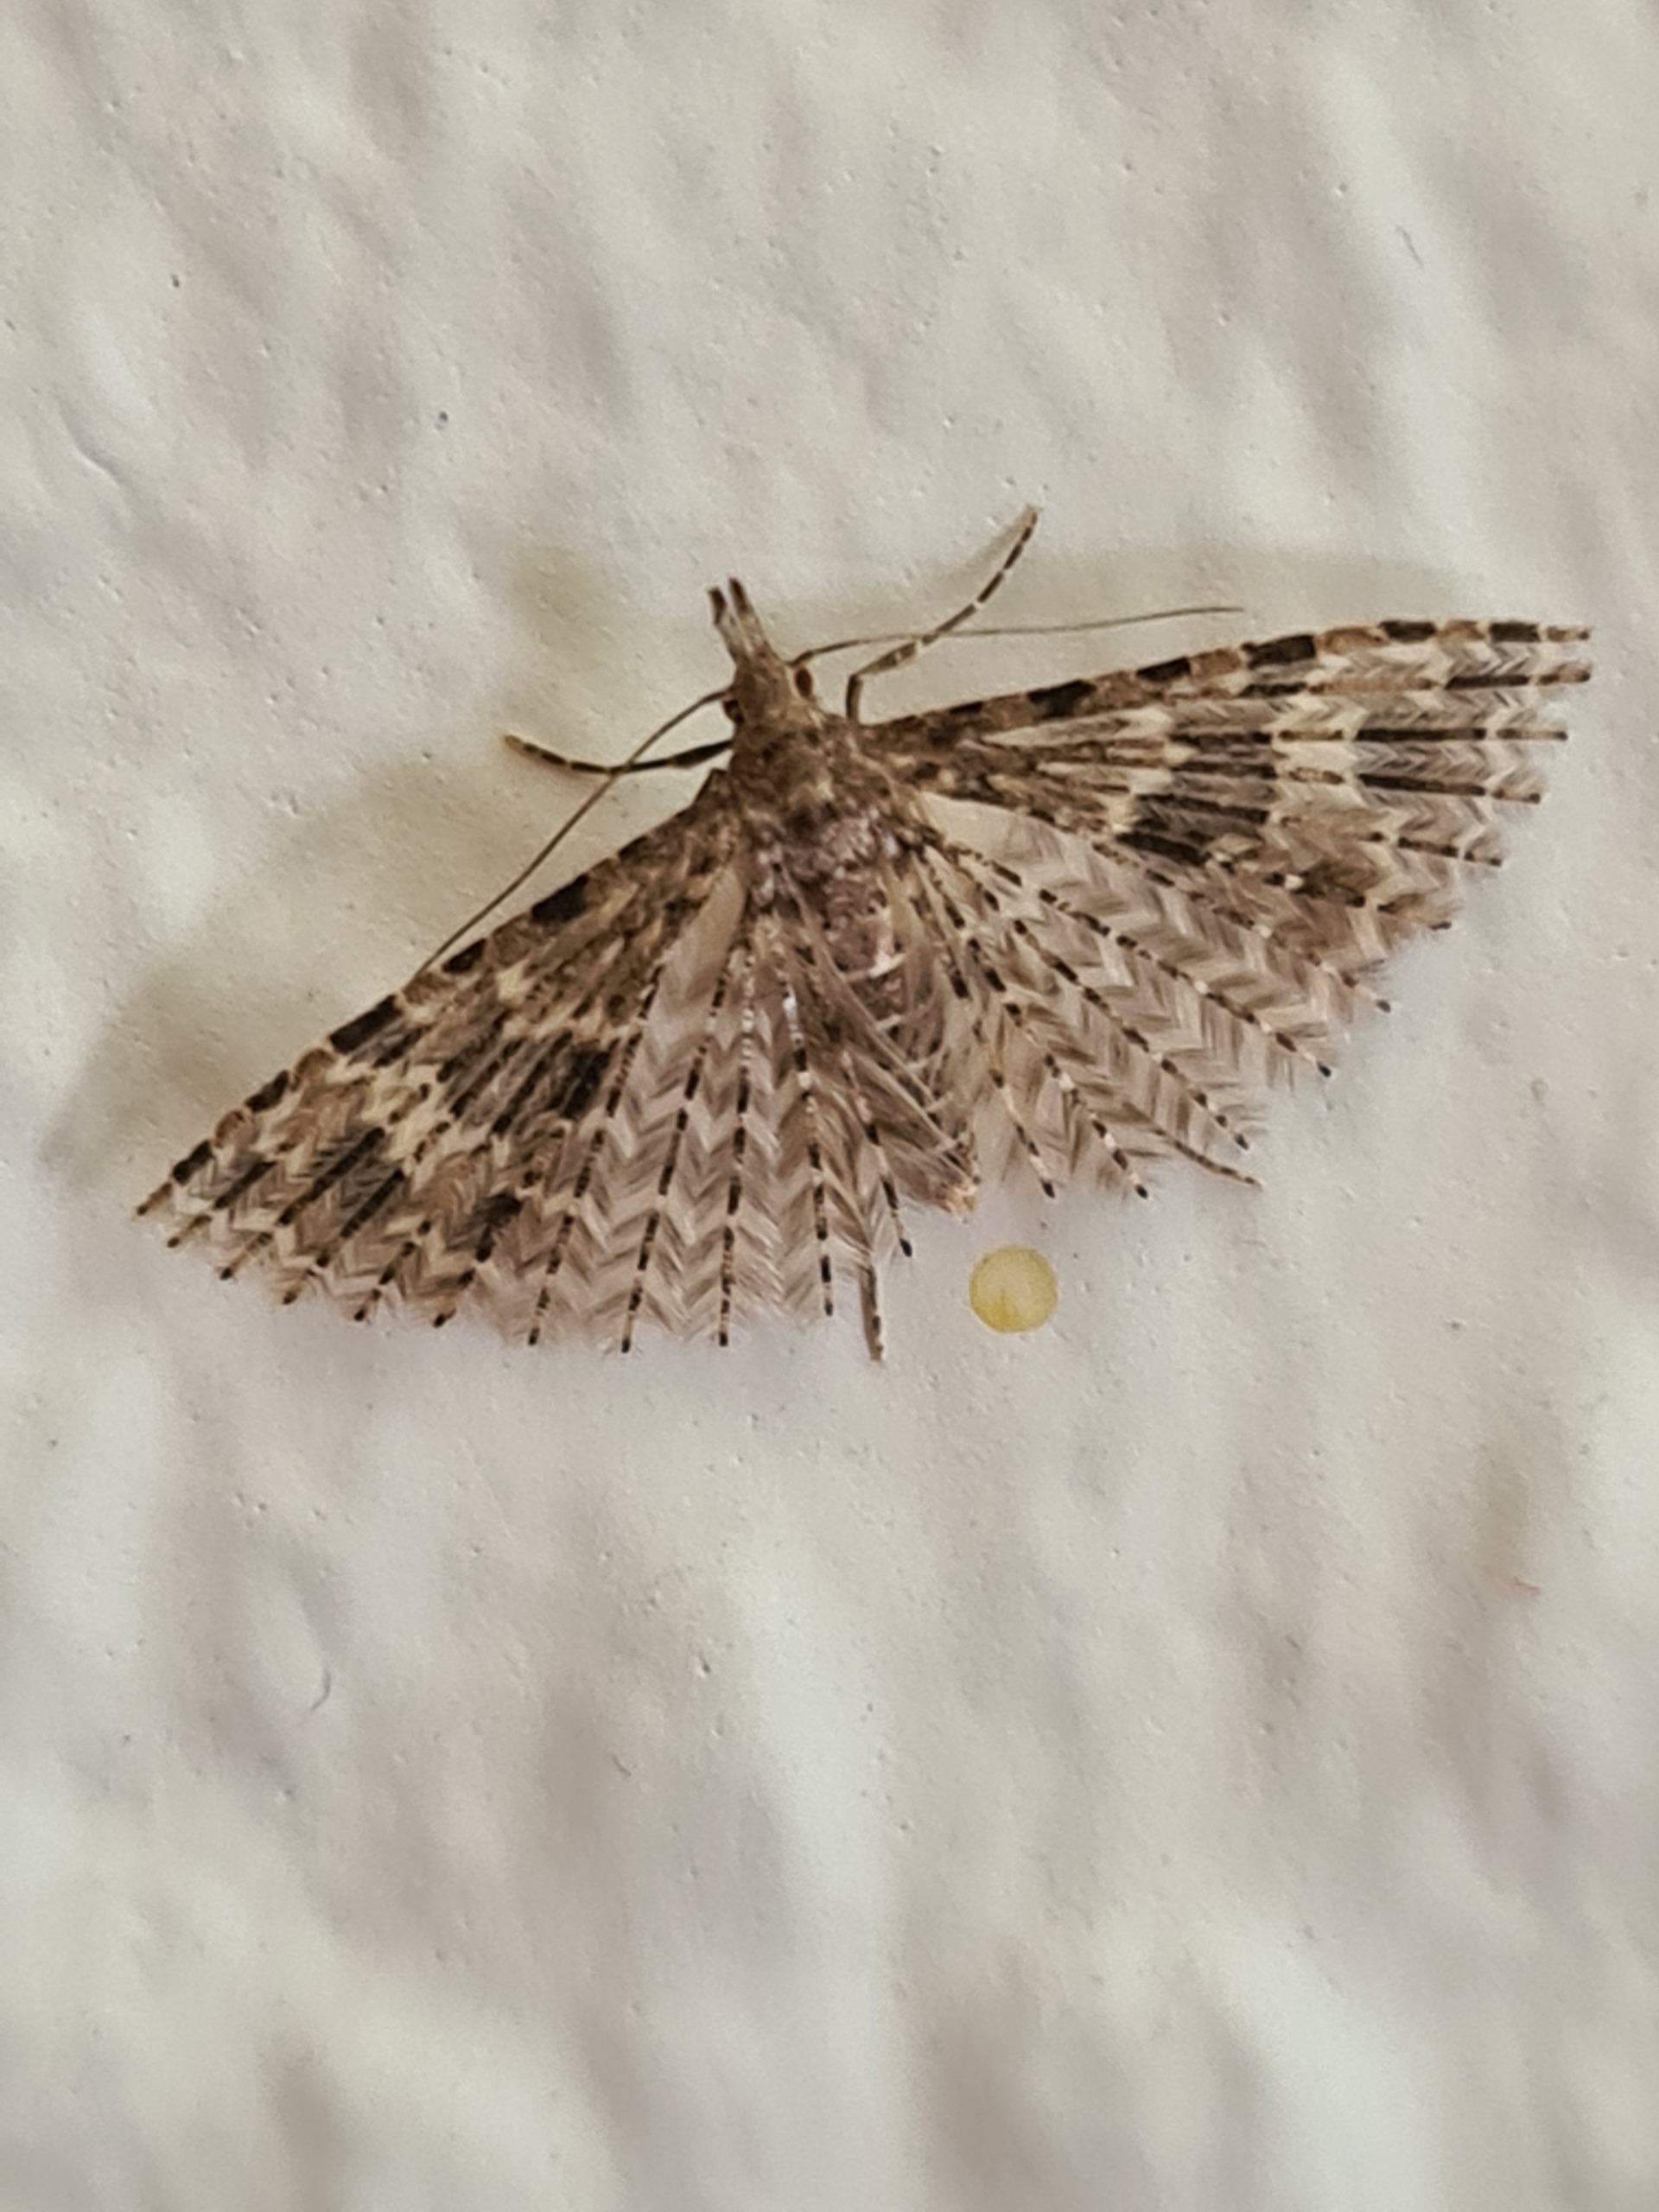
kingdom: Animalia
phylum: Arthropoda
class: Insecta
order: Lepidoptera
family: Alucitidae
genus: Alucita
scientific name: Alucita hexadactyla
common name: Kaprifoliefjermøl
